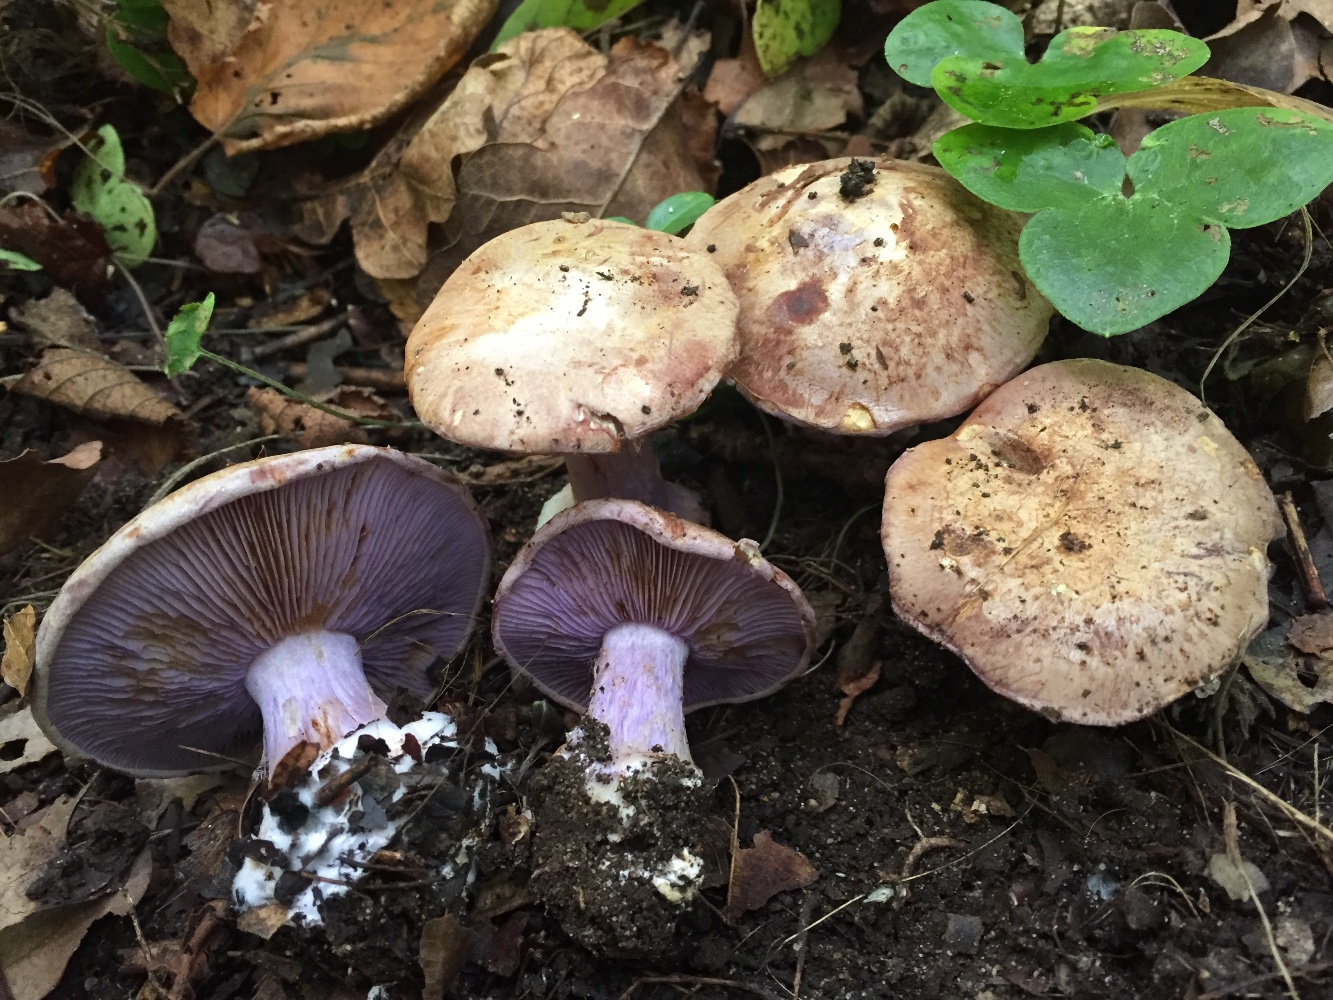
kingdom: Fungi
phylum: Basidiomycota
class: Agaricomycetes
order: Agaricales
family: Cortinariaceae
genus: Cortinarius
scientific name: Cortinarius ionodactylus
